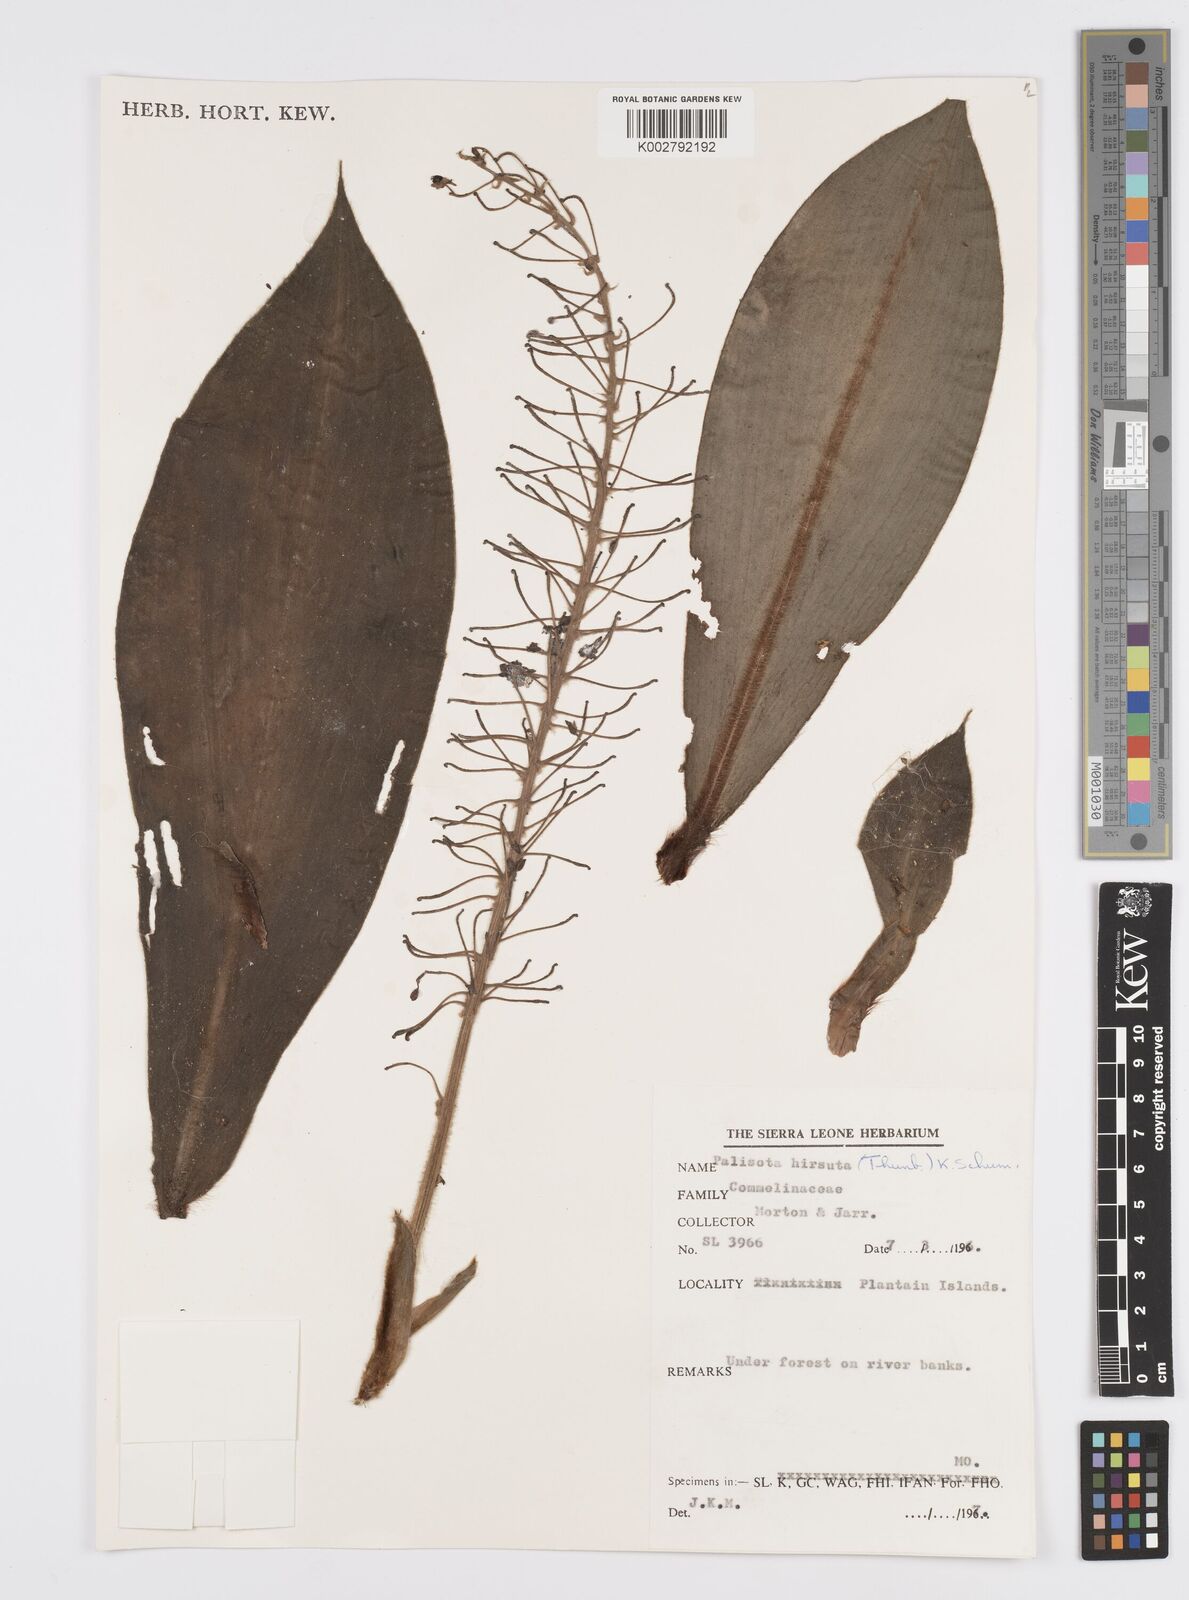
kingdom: Plantae
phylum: Tracheophyta
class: Liliopsida
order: Commelinales
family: Commelinaceae
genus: Palisota
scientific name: Palisota hirsuta
